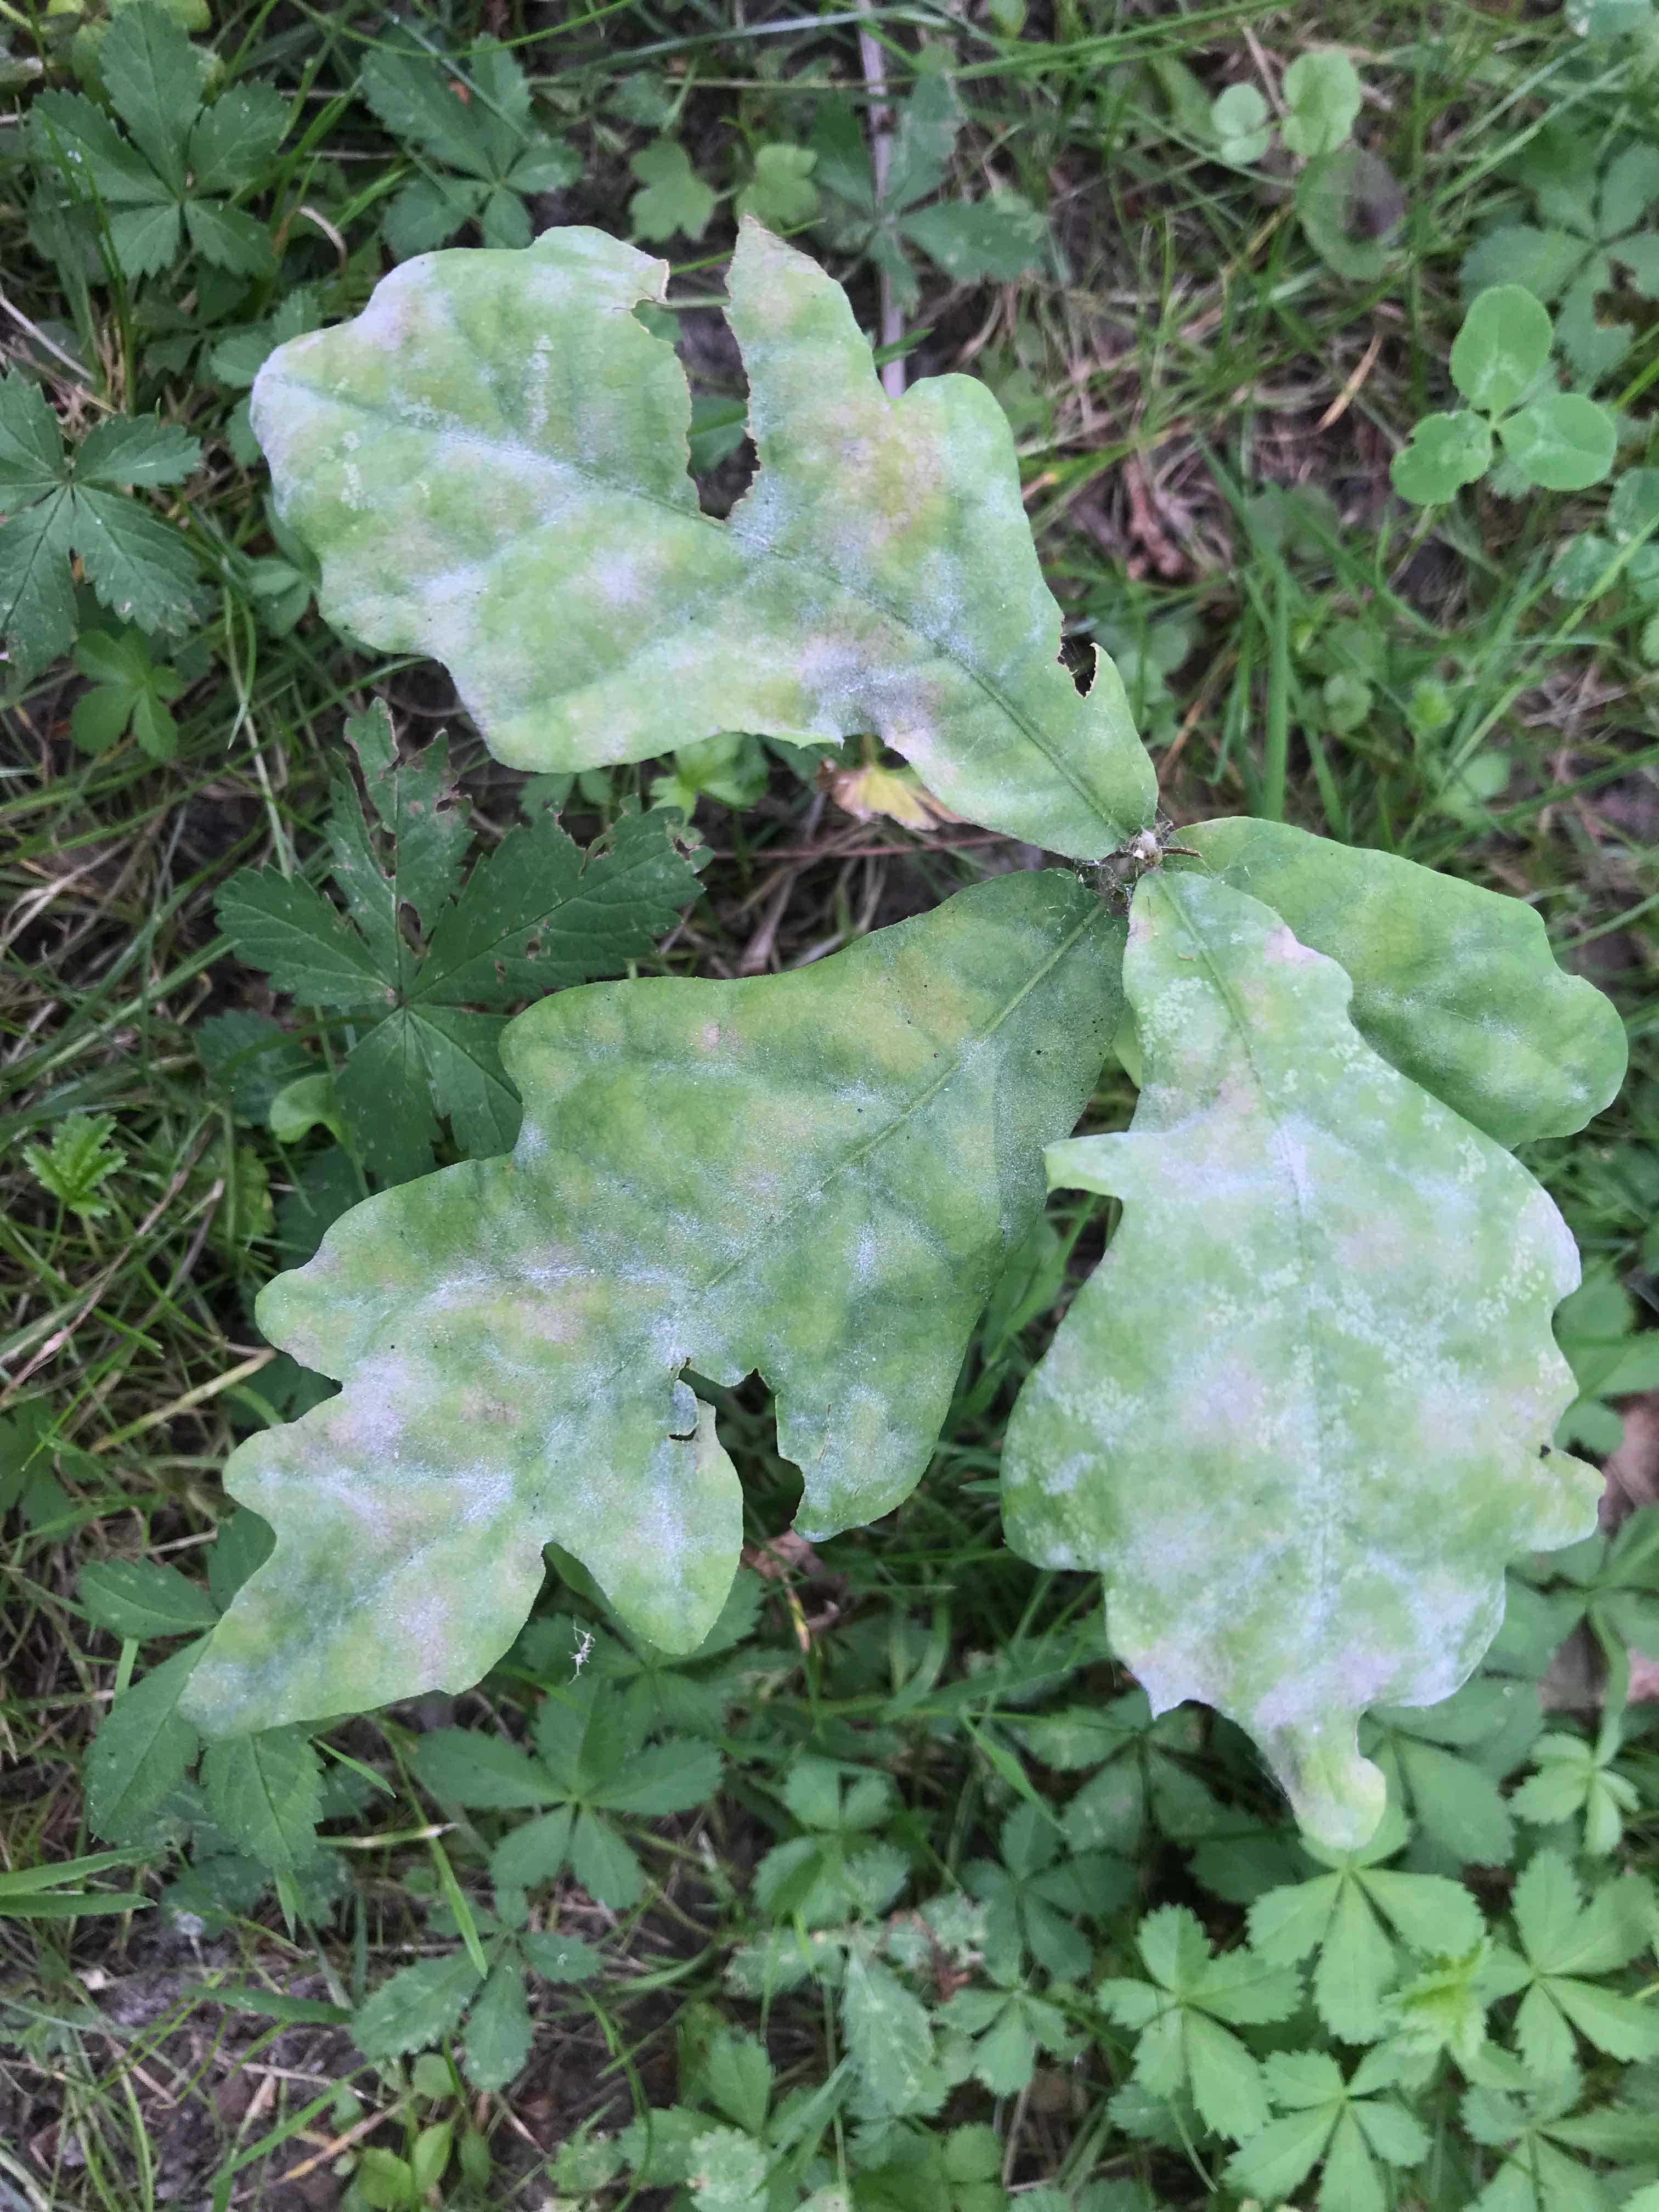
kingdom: Fungi
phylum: Ascomycota
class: Leotiomycetes
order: Helotiales
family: Erysiphaceae
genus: Erysiphe
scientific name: Erysiphe alphitoides
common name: ege-meldug
